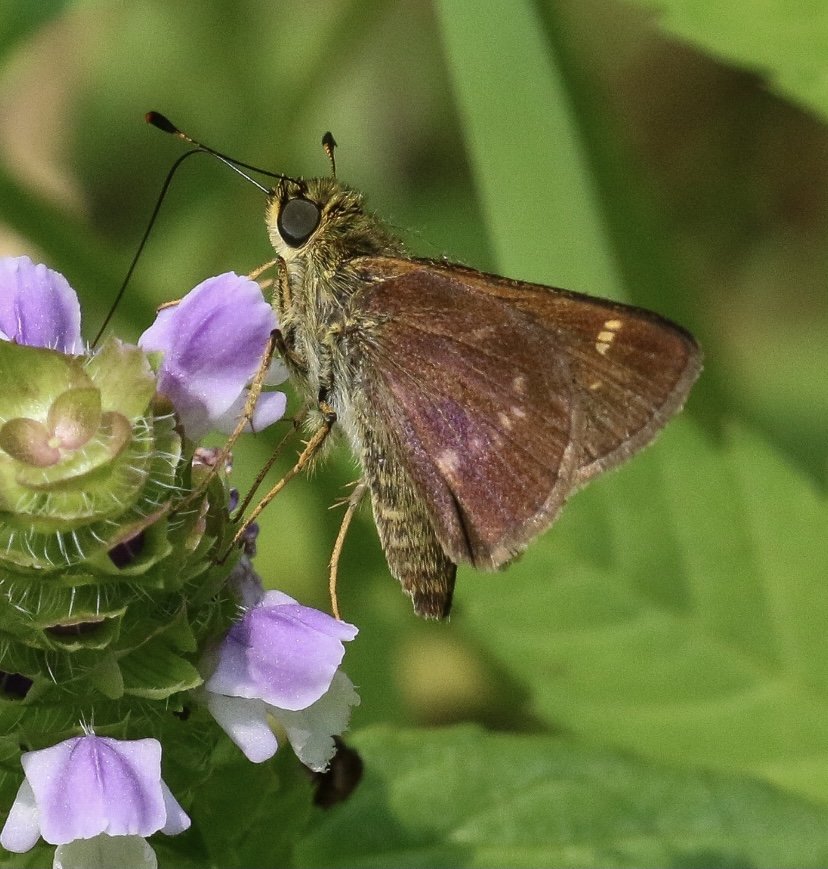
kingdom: Animalia
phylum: Arthropoda
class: Insecta
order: Lepidoptera
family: Hesperiidae
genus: Vernia
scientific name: Vernia verna
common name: Little Glassywing
